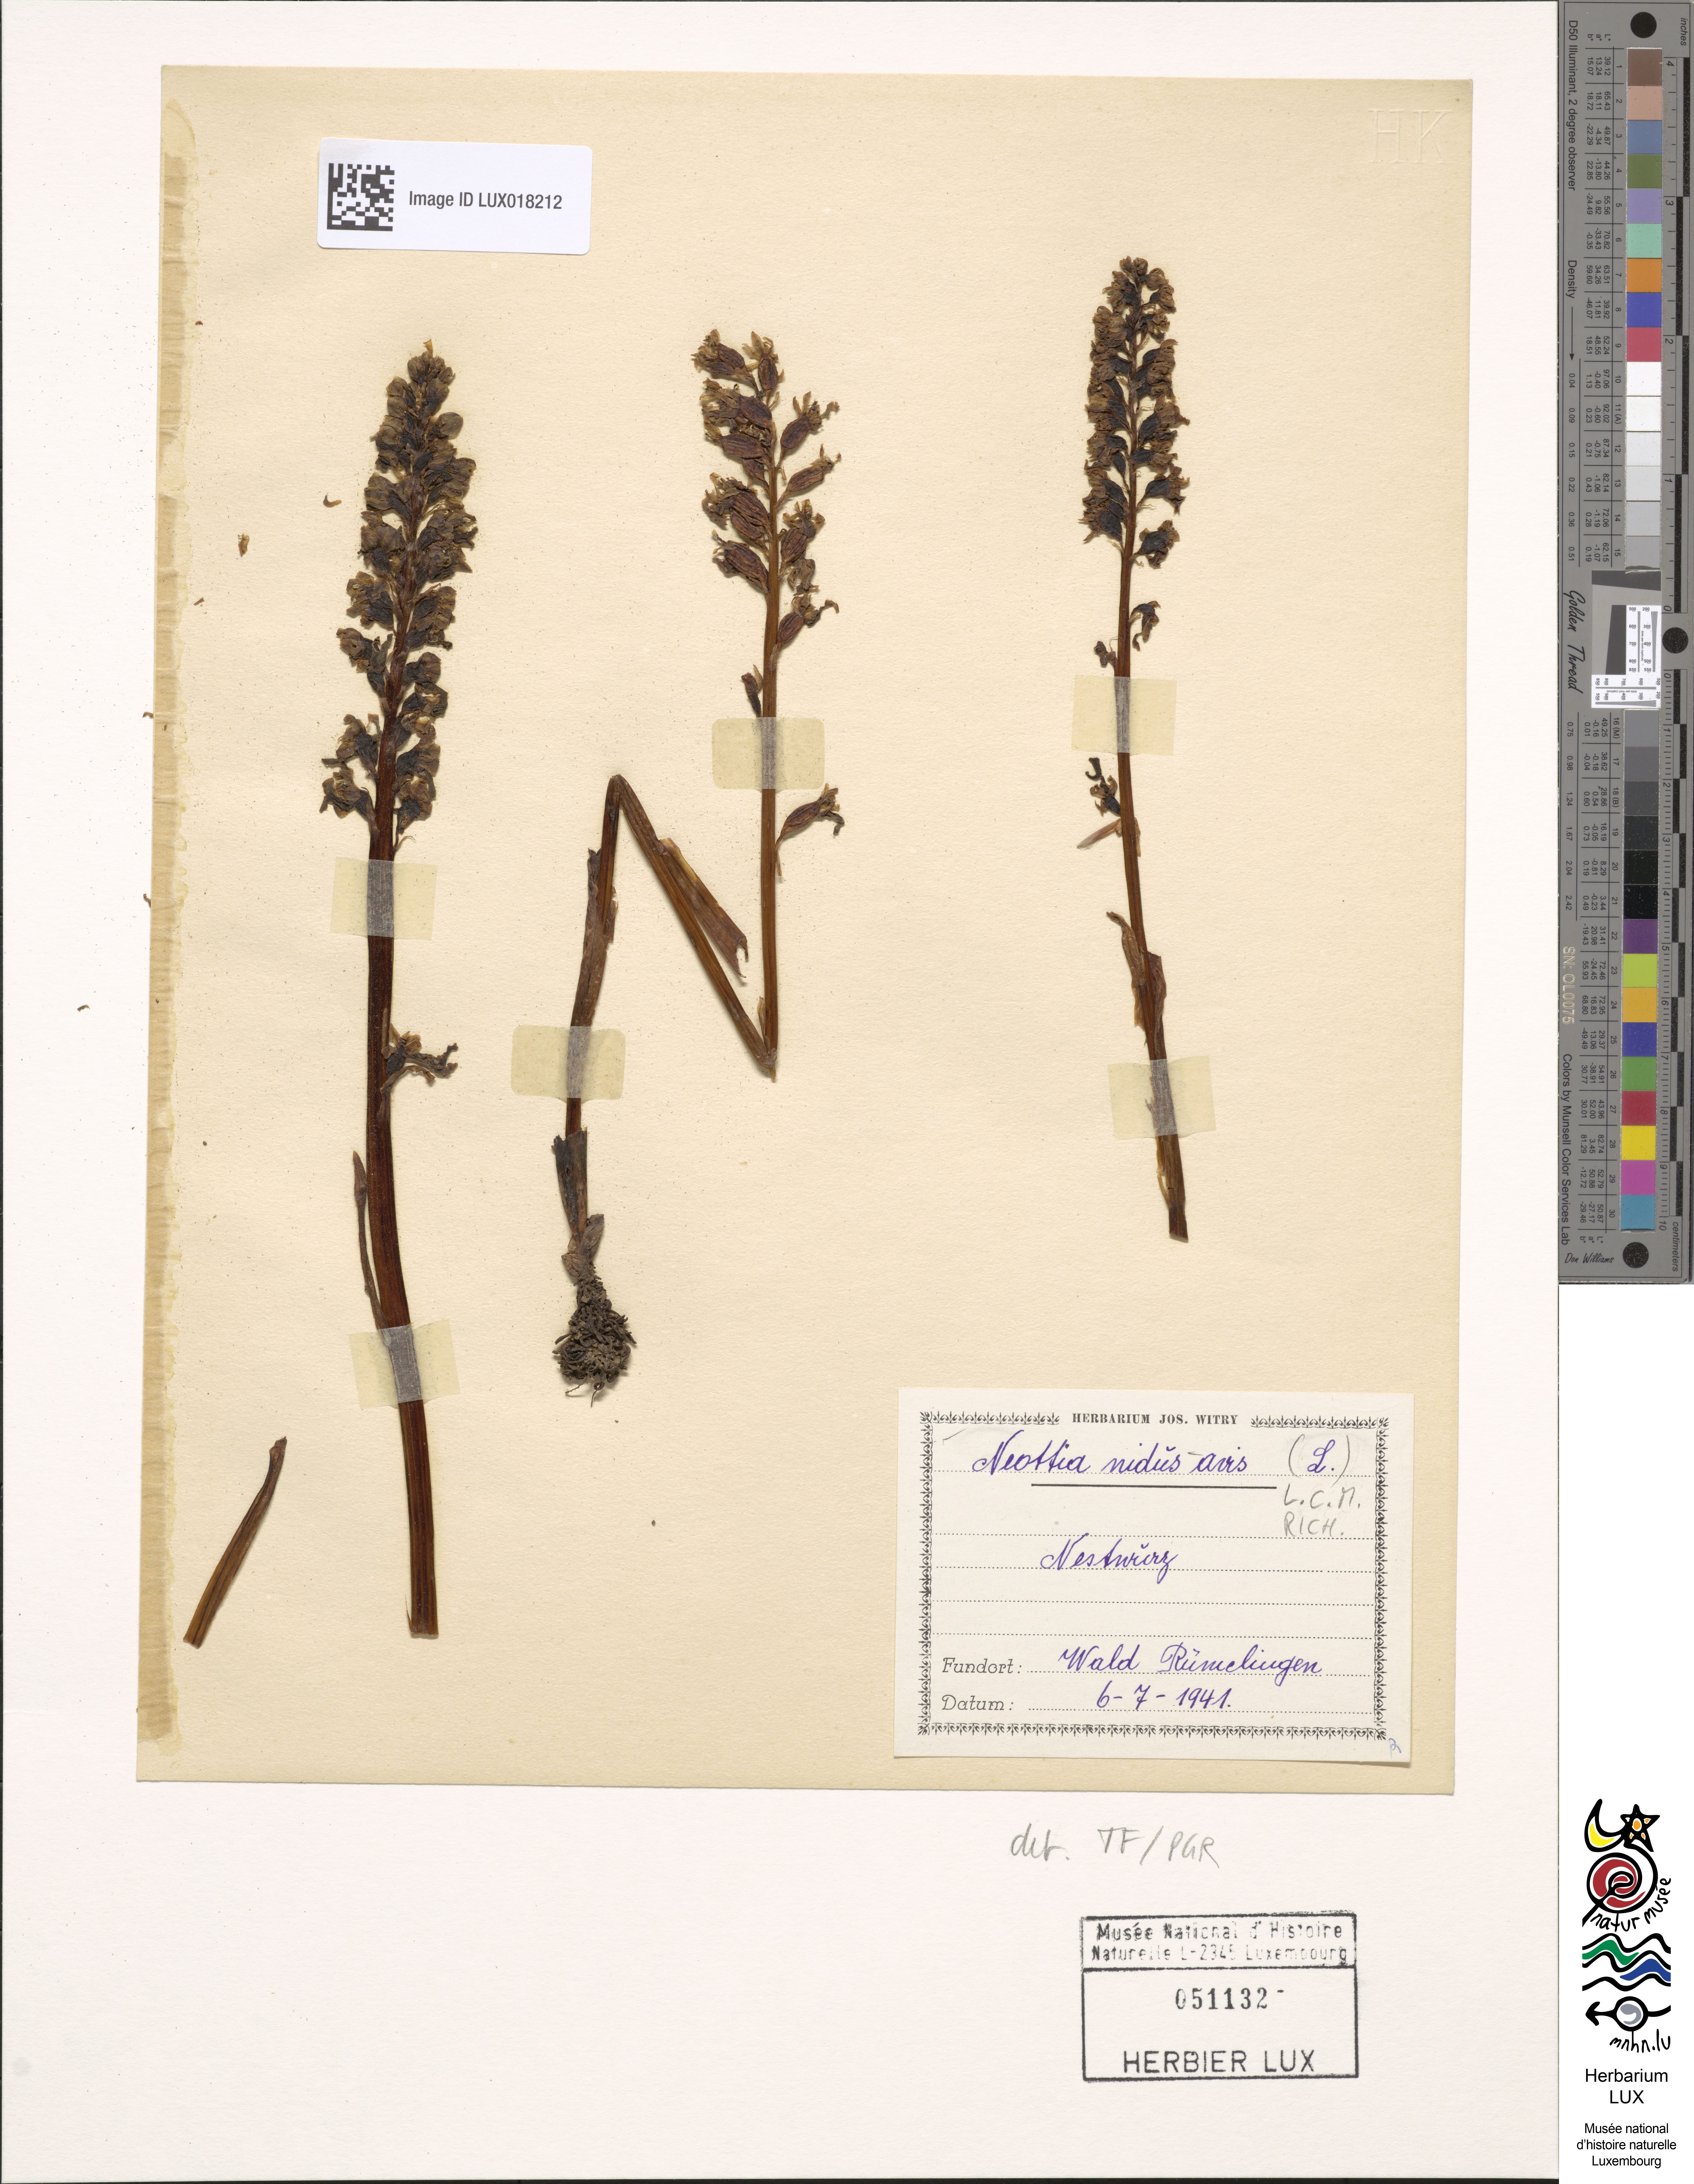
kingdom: Plantae
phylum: Tracheophyta
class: Liliopsida
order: Asparagales
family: Orchidaceae
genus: Neottia
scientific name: Neottia nidus-avis
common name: Bird's-nest orchid
